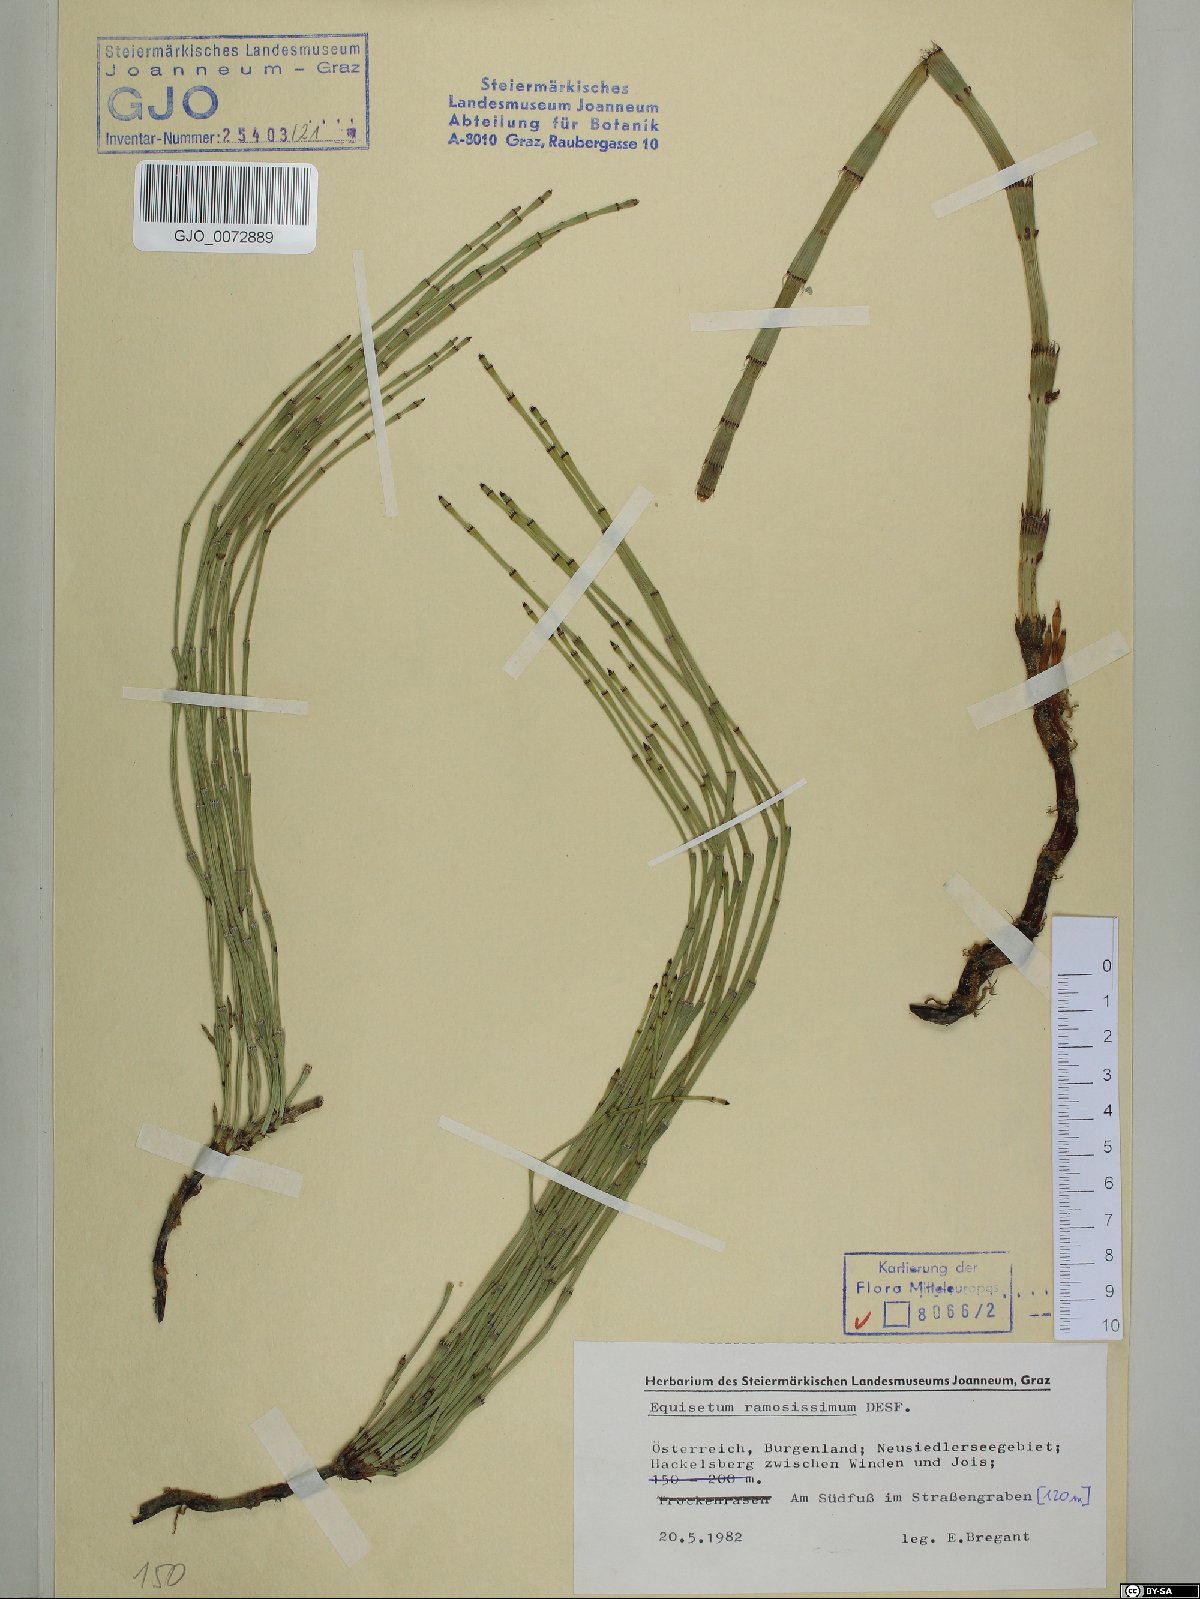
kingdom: Plantae
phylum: Tracheophyta
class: Polypodiopsida
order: Equisetales
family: Equisetaceae
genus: Equisetum
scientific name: Equisetum ramosissimum
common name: Branched horsetail
